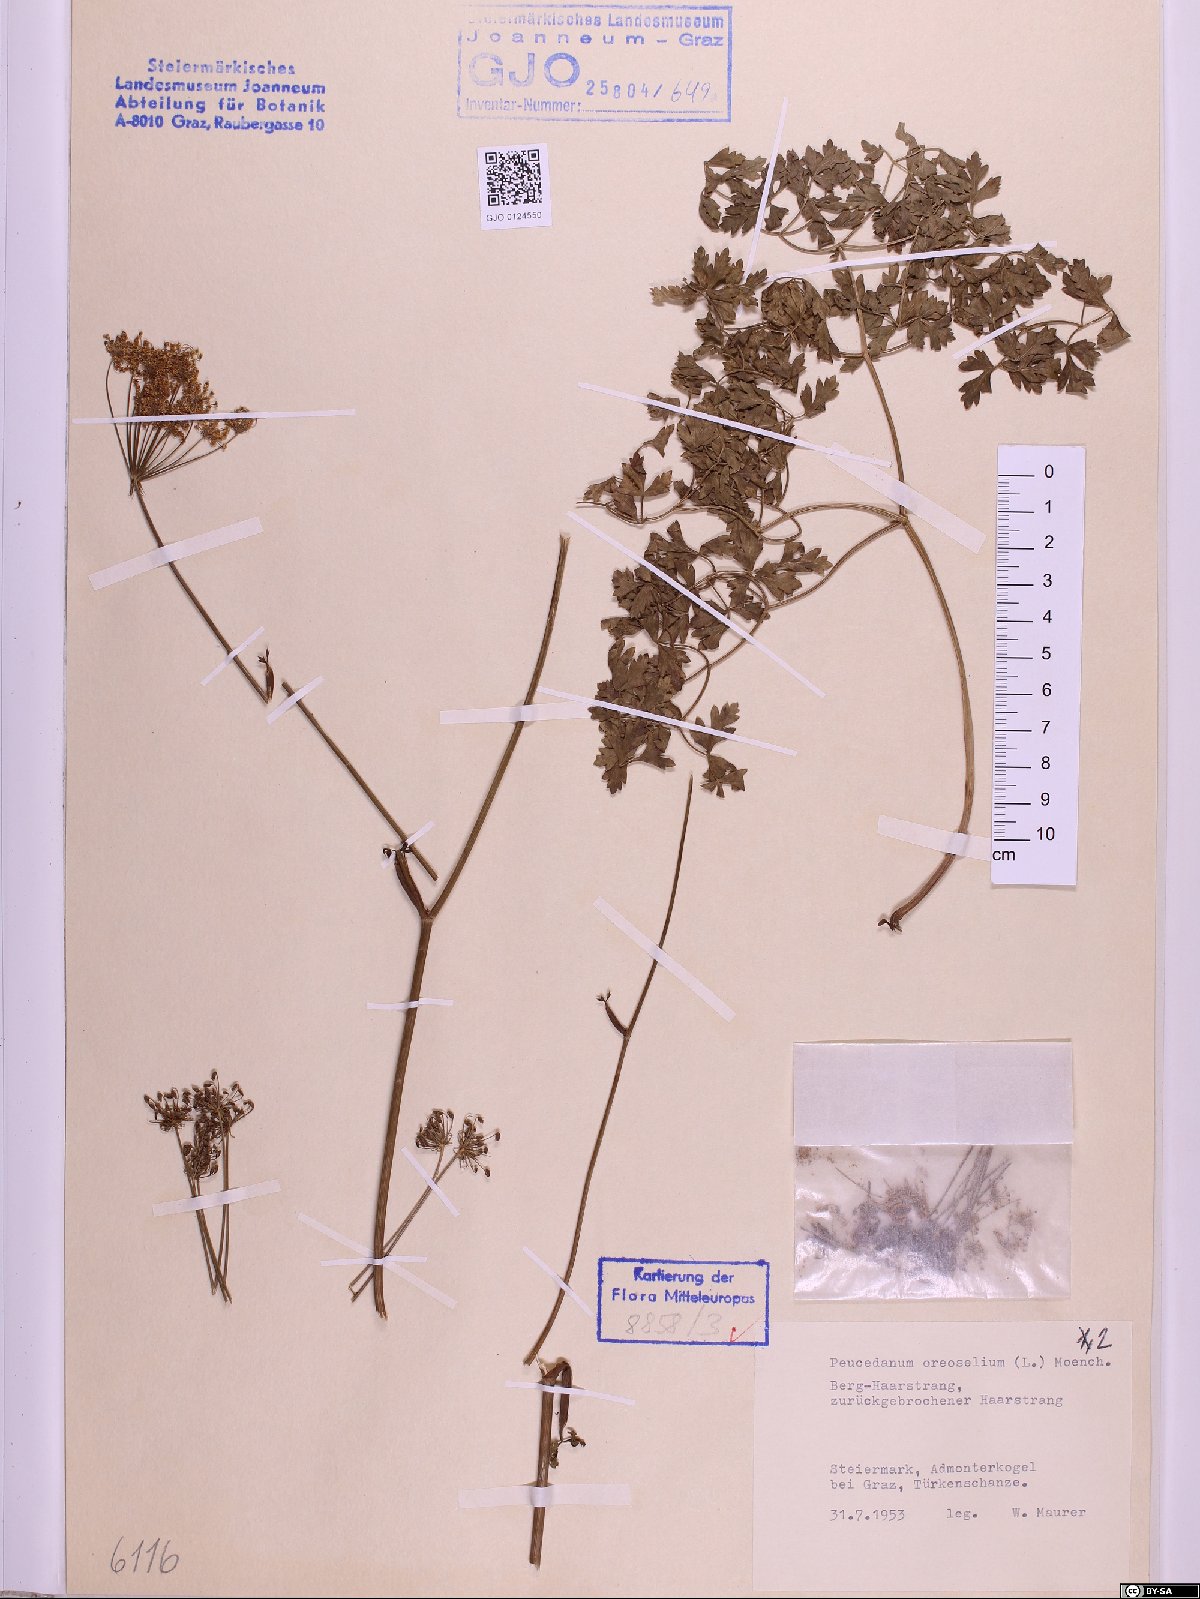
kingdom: Plantae
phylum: Tracheophyta
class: Magnoliopsida
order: Apiales
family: Apiaceae
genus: Oreoselinum
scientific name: Oreoselinum nigrum
